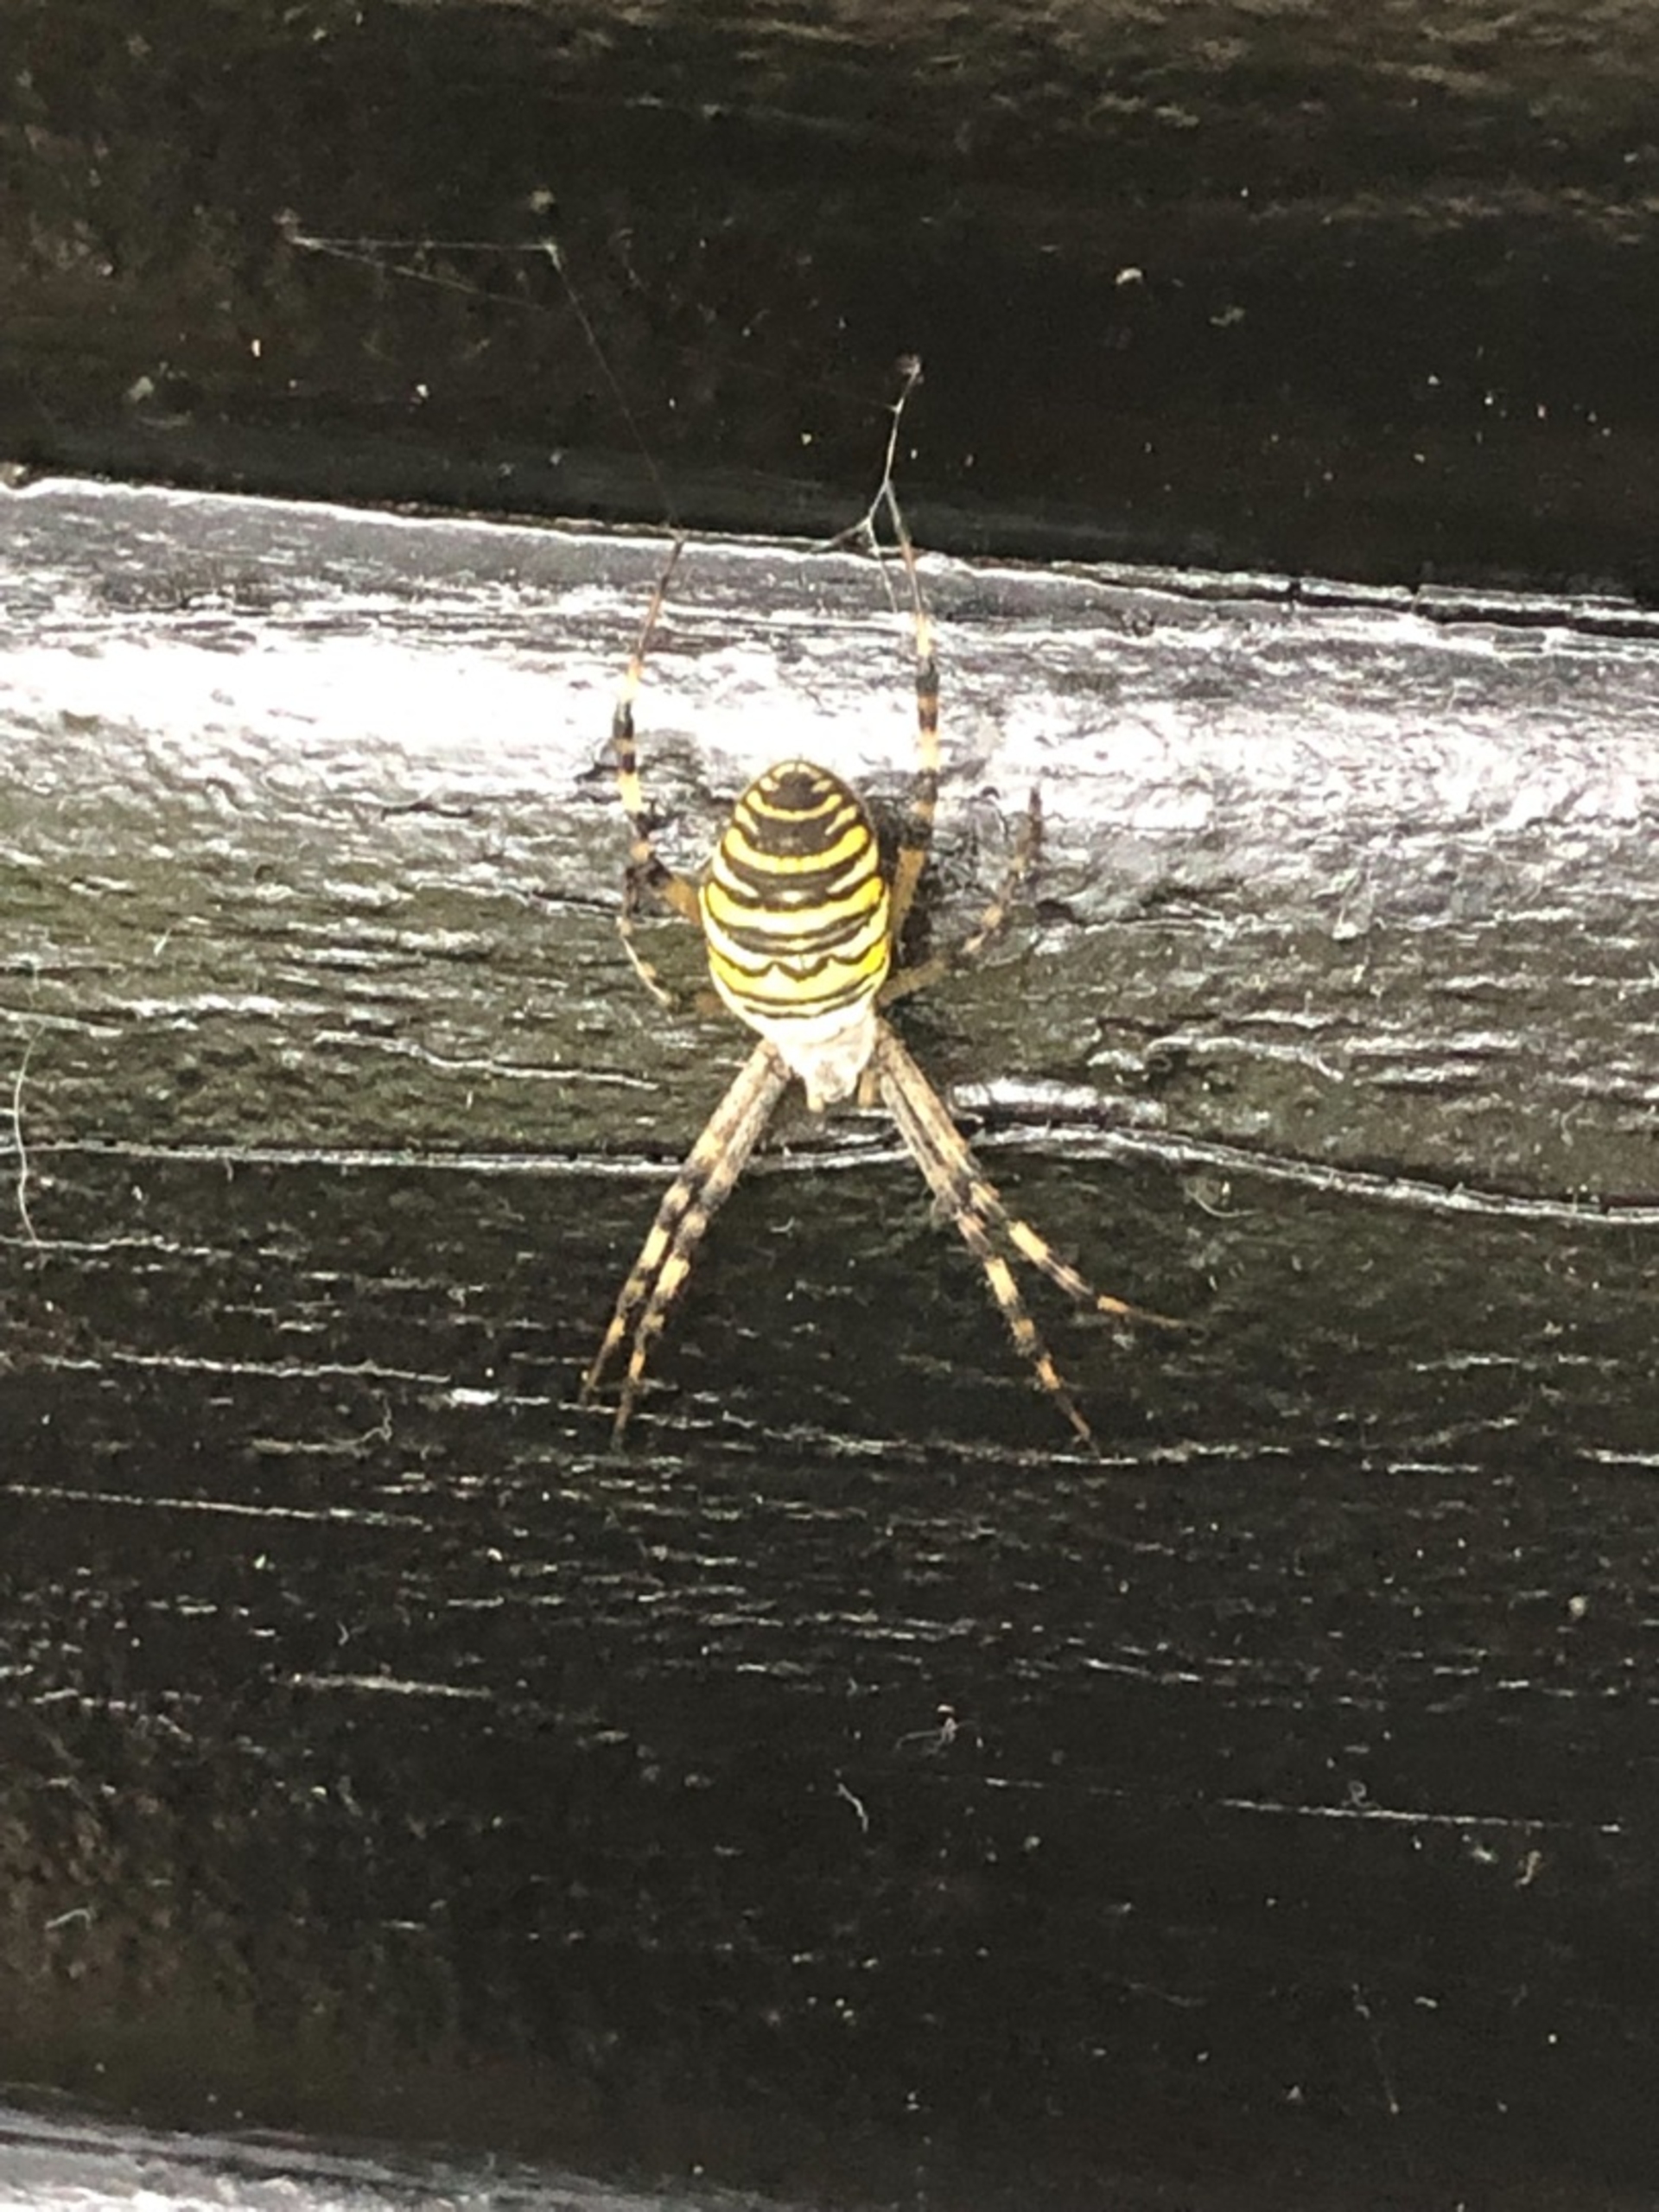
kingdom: Animalia
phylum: Arthropoda
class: Arachnida
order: Araneae
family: Araneidae
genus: Argiope
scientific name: Argiope bruennichi
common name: Hvepseedderkop
